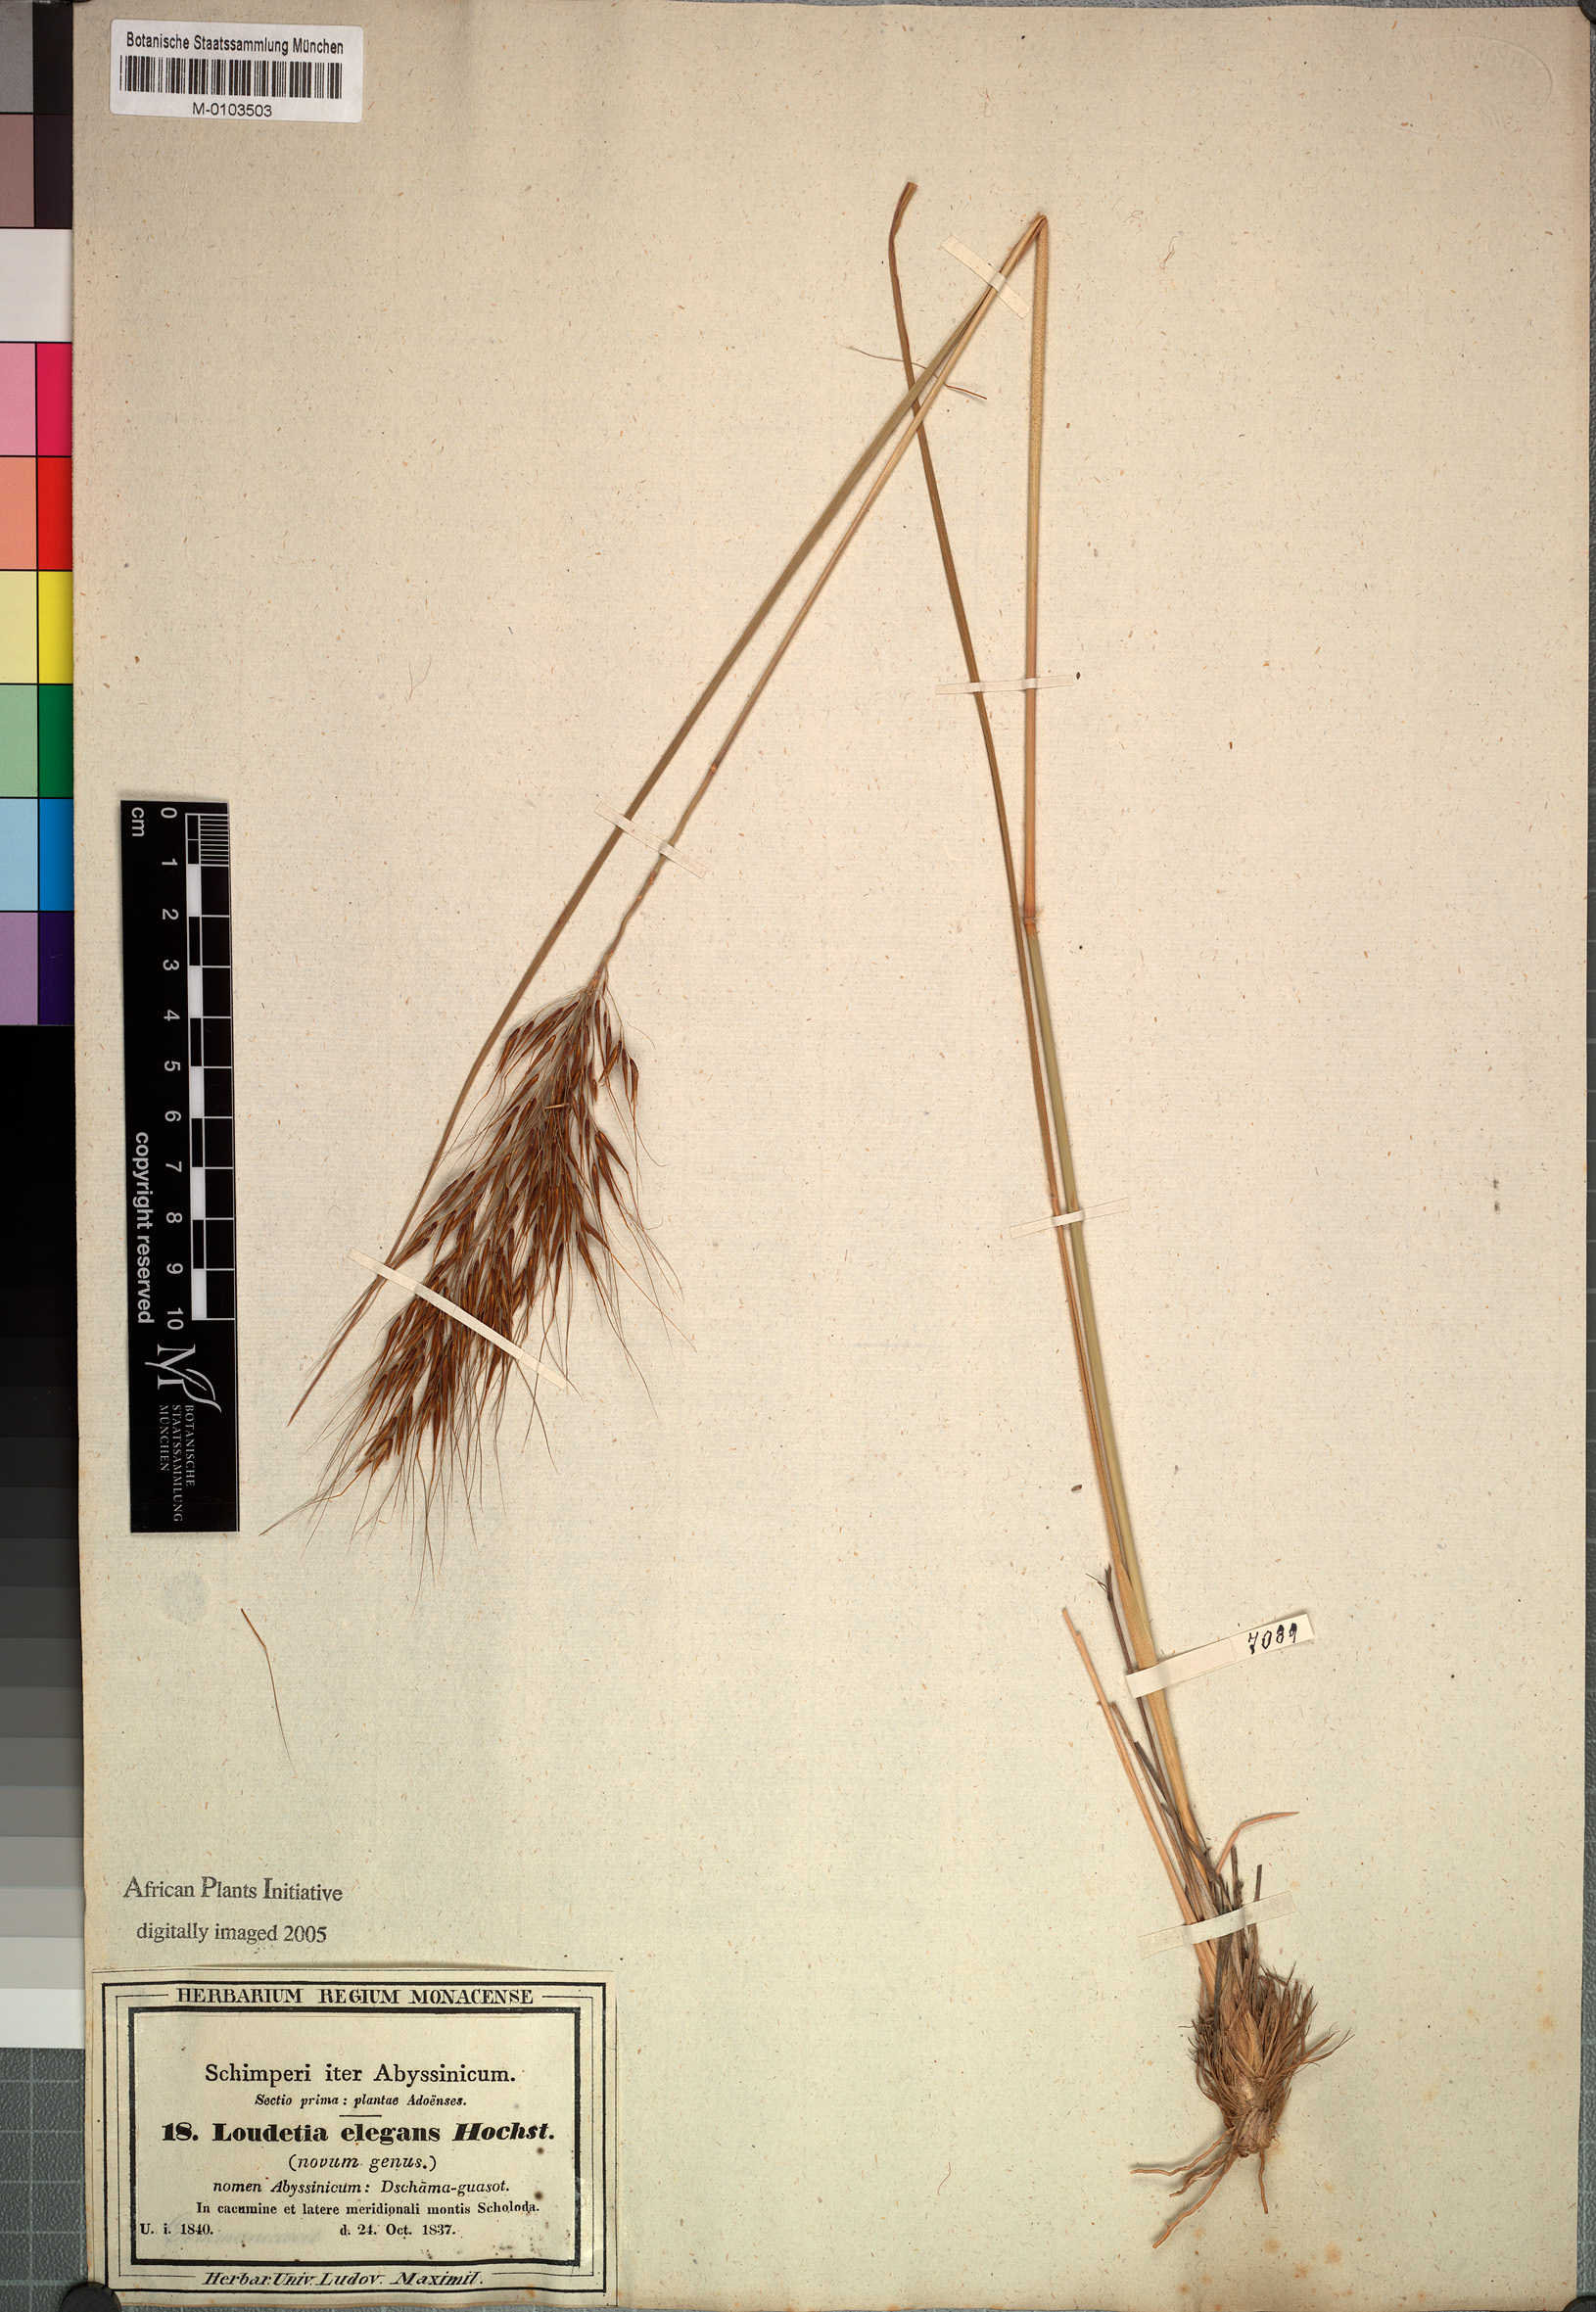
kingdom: Plantae
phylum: Tracheophyta
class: Liliopsida
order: Poales
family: Poaceae
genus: Danthoniopsis
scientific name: Danthoniopsis barbata
